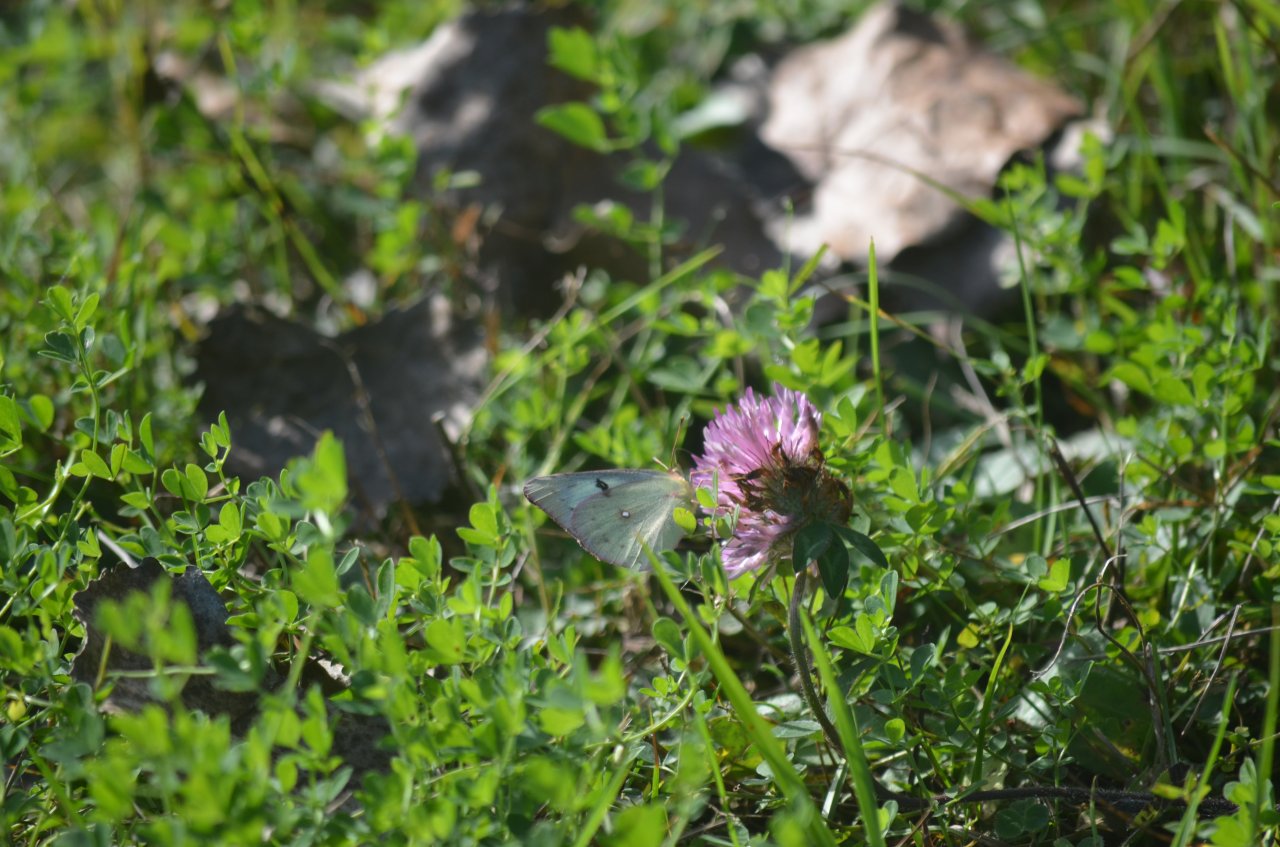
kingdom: Animalia
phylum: Arthropoda
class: Insecta
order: Lepidoptera
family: Pieridae
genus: Colias
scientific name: Colias philodice
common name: Clouded Sulphur
